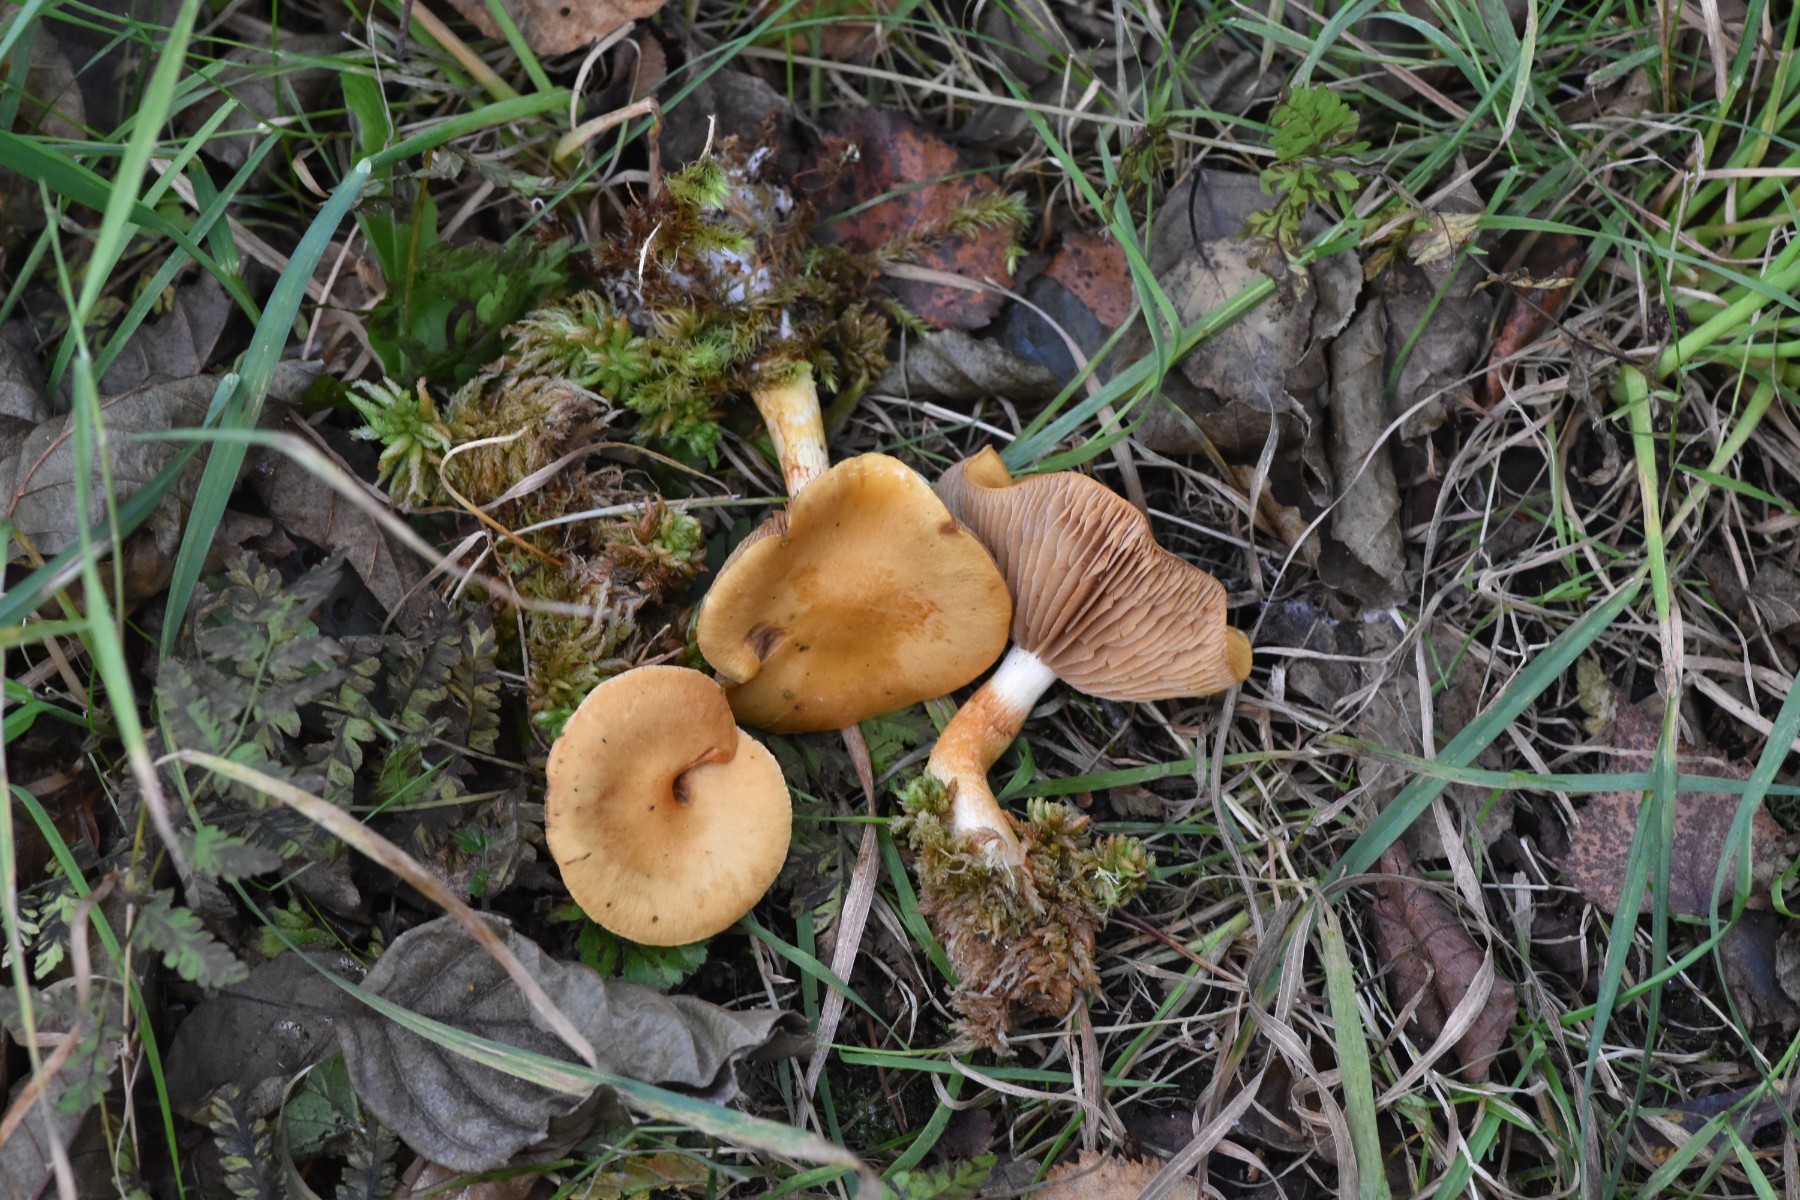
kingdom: Fungi
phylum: Basidiomycota
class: Agaricomycetes
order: Agaricales
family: Cortinariaceae
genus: Cortinarius
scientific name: Cortinarius illibatus
